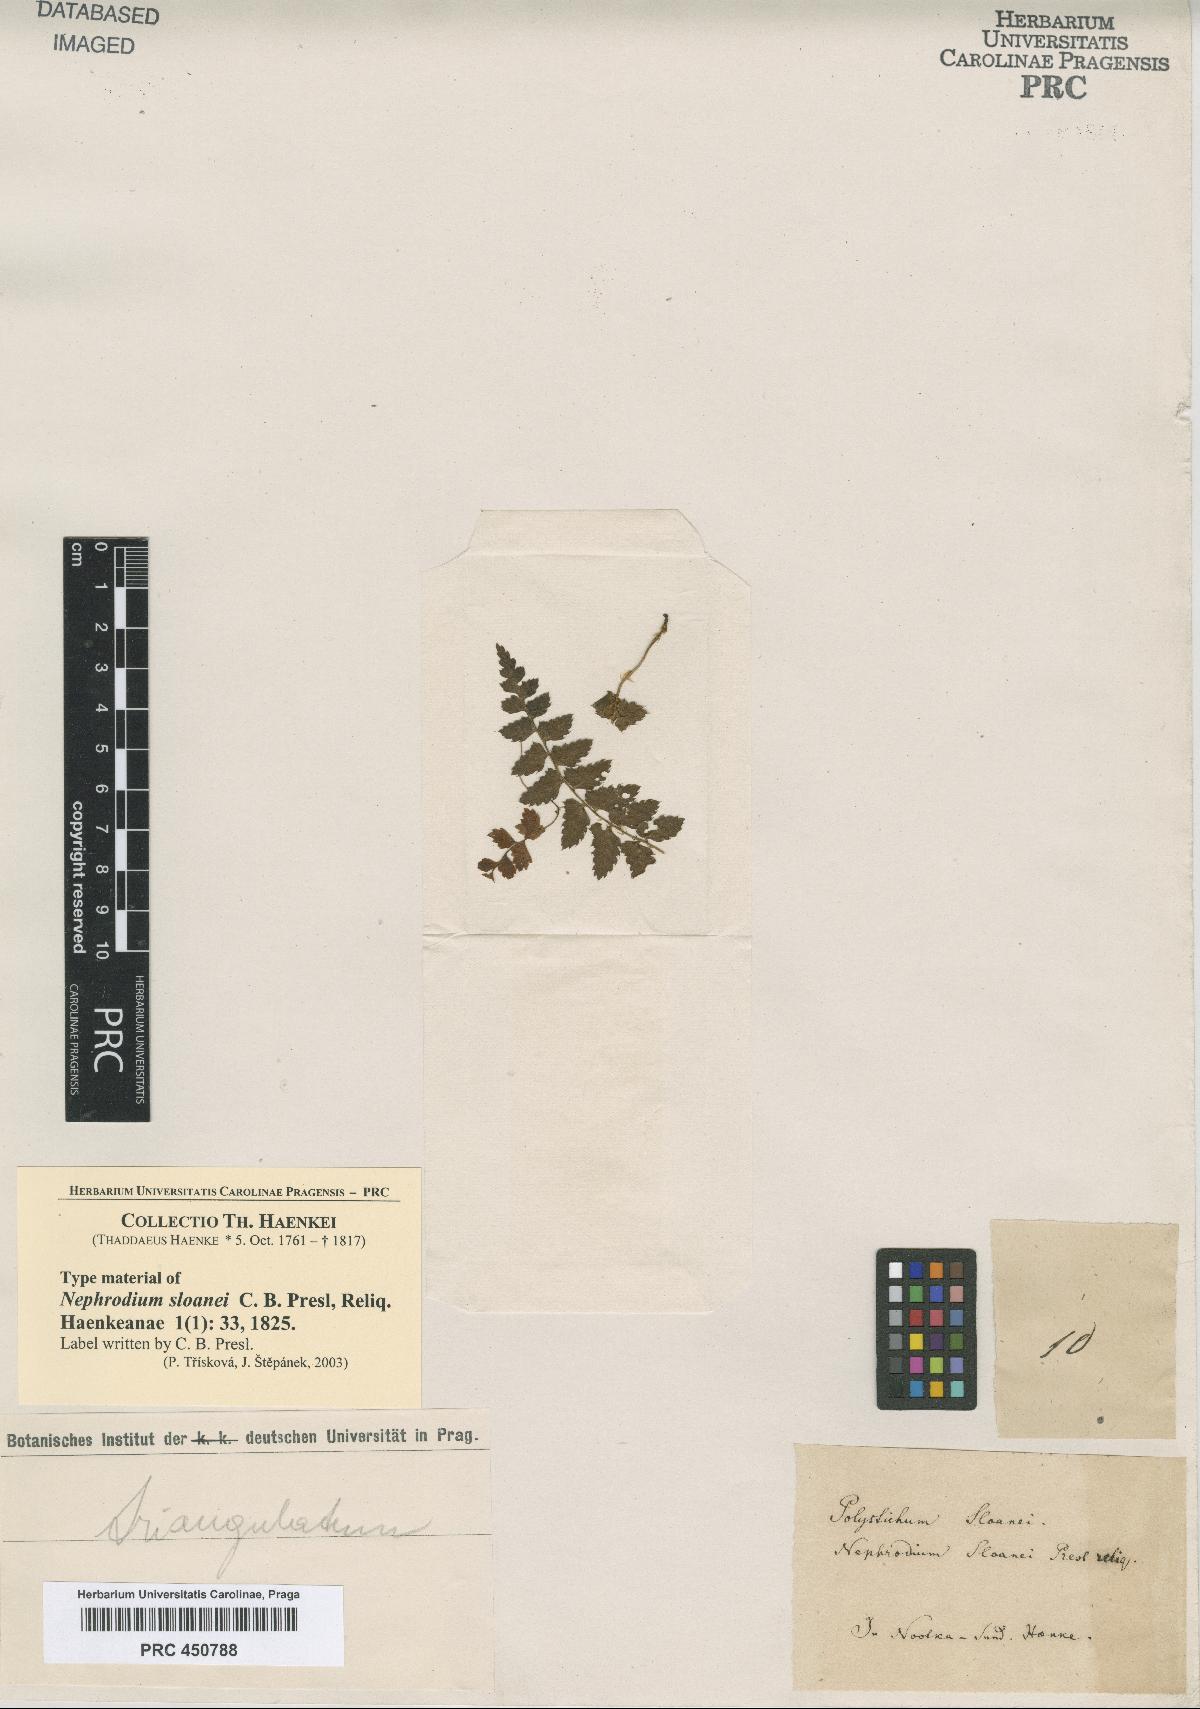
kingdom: Plantae
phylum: Tracheophyta
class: Polypodiopsida
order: Polypodiales
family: Dryopteridaceae
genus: Polystichum
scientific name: Polystichum echinatum
